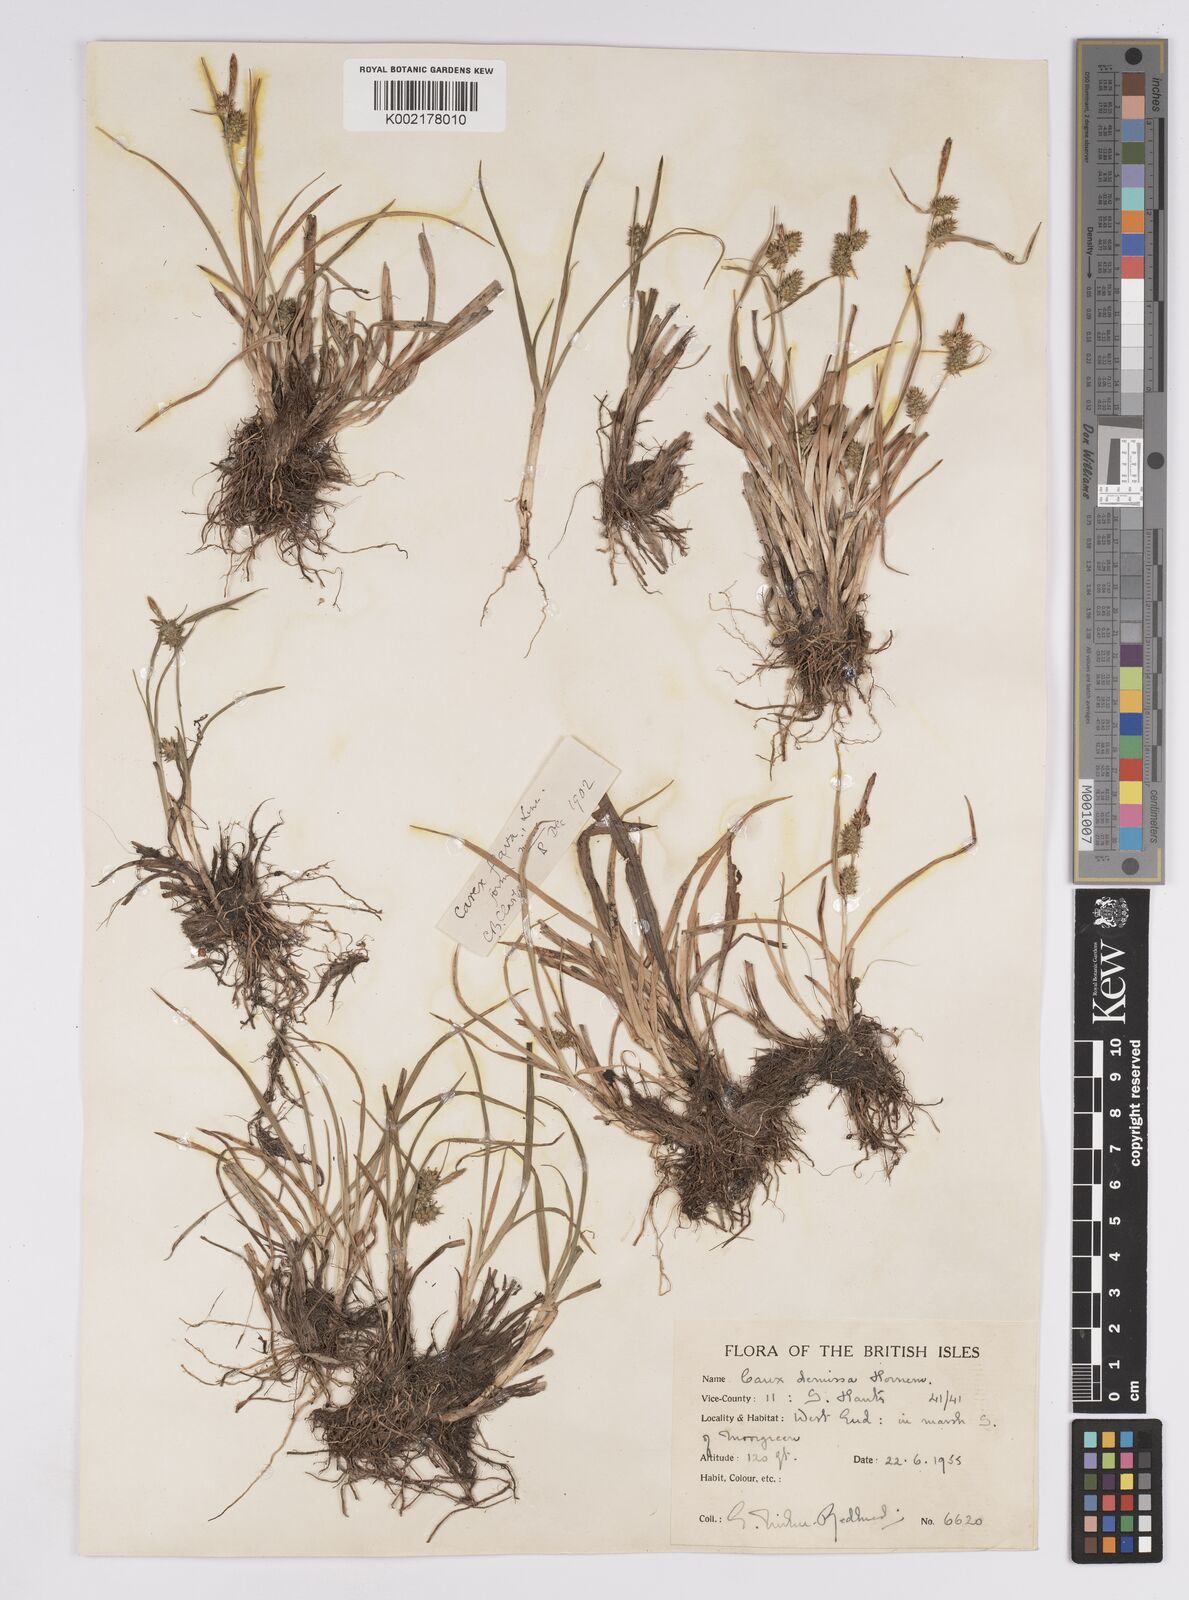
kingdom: Plantae
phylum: Tracheophyta
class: Liliopsida
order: Poales
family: Cyperaceae
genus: Carex
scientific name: Carex demissa
